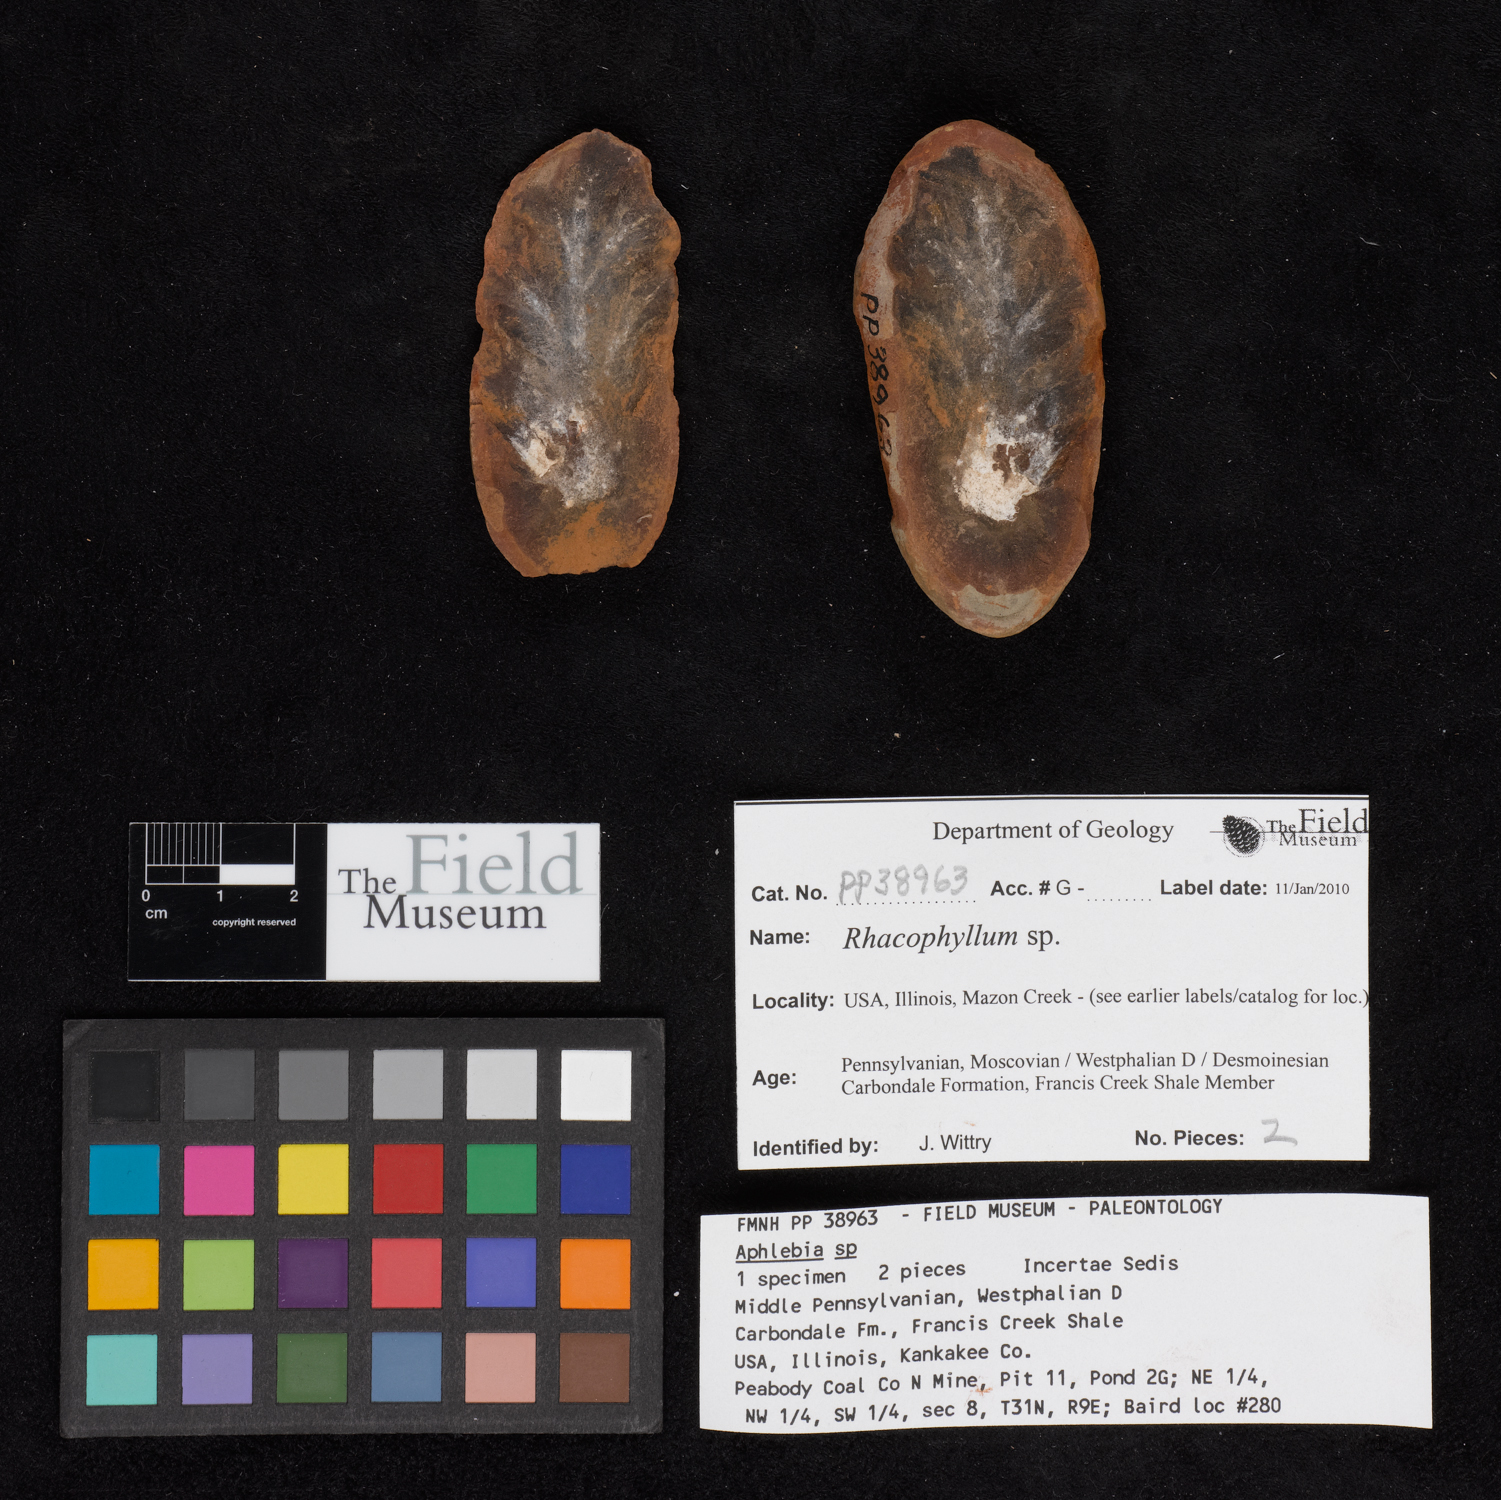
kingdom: Plantae
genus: Rhacophyllum
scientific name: Rhacophyllum
